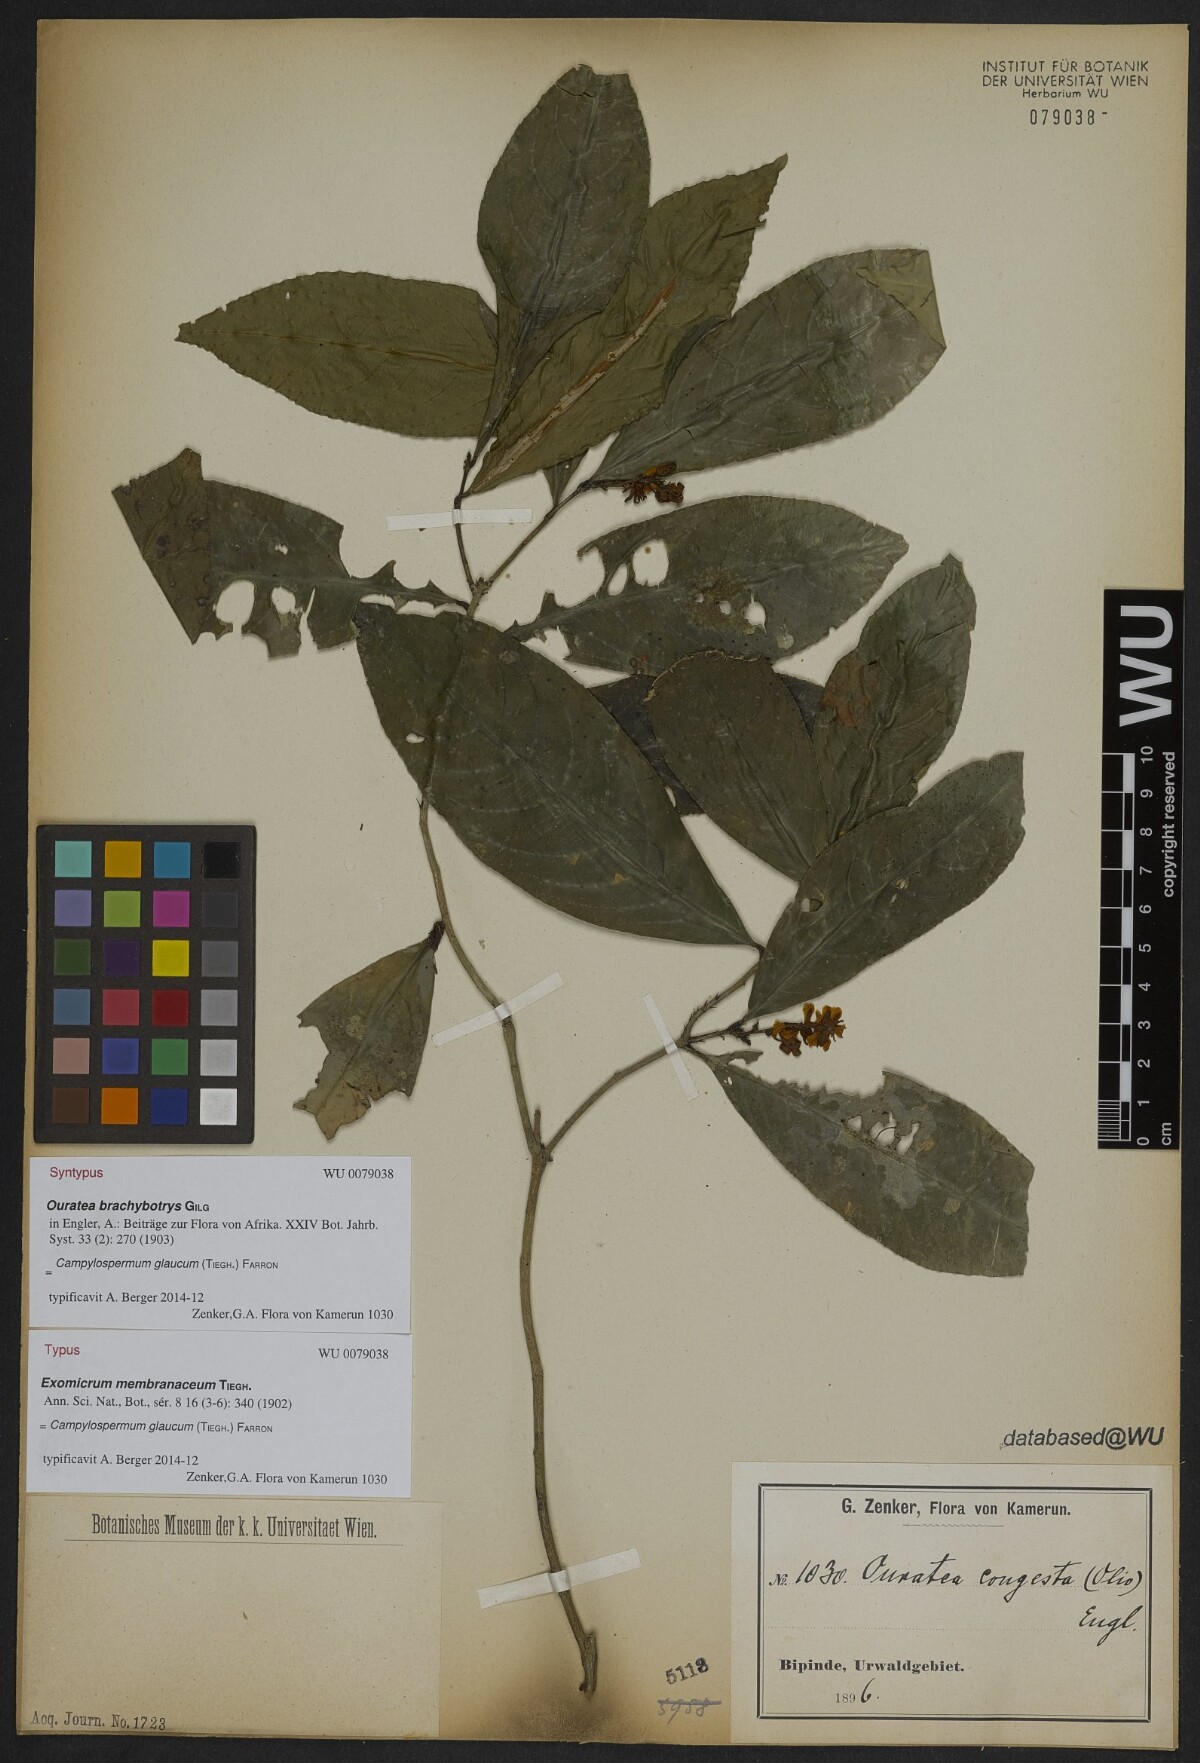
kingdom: Plantae
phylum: Tracheophyta
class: Magnoliopsida
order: Malpighiales
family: Ochnaceae
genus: Campylospermum
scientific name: Campylospermum glaucum
